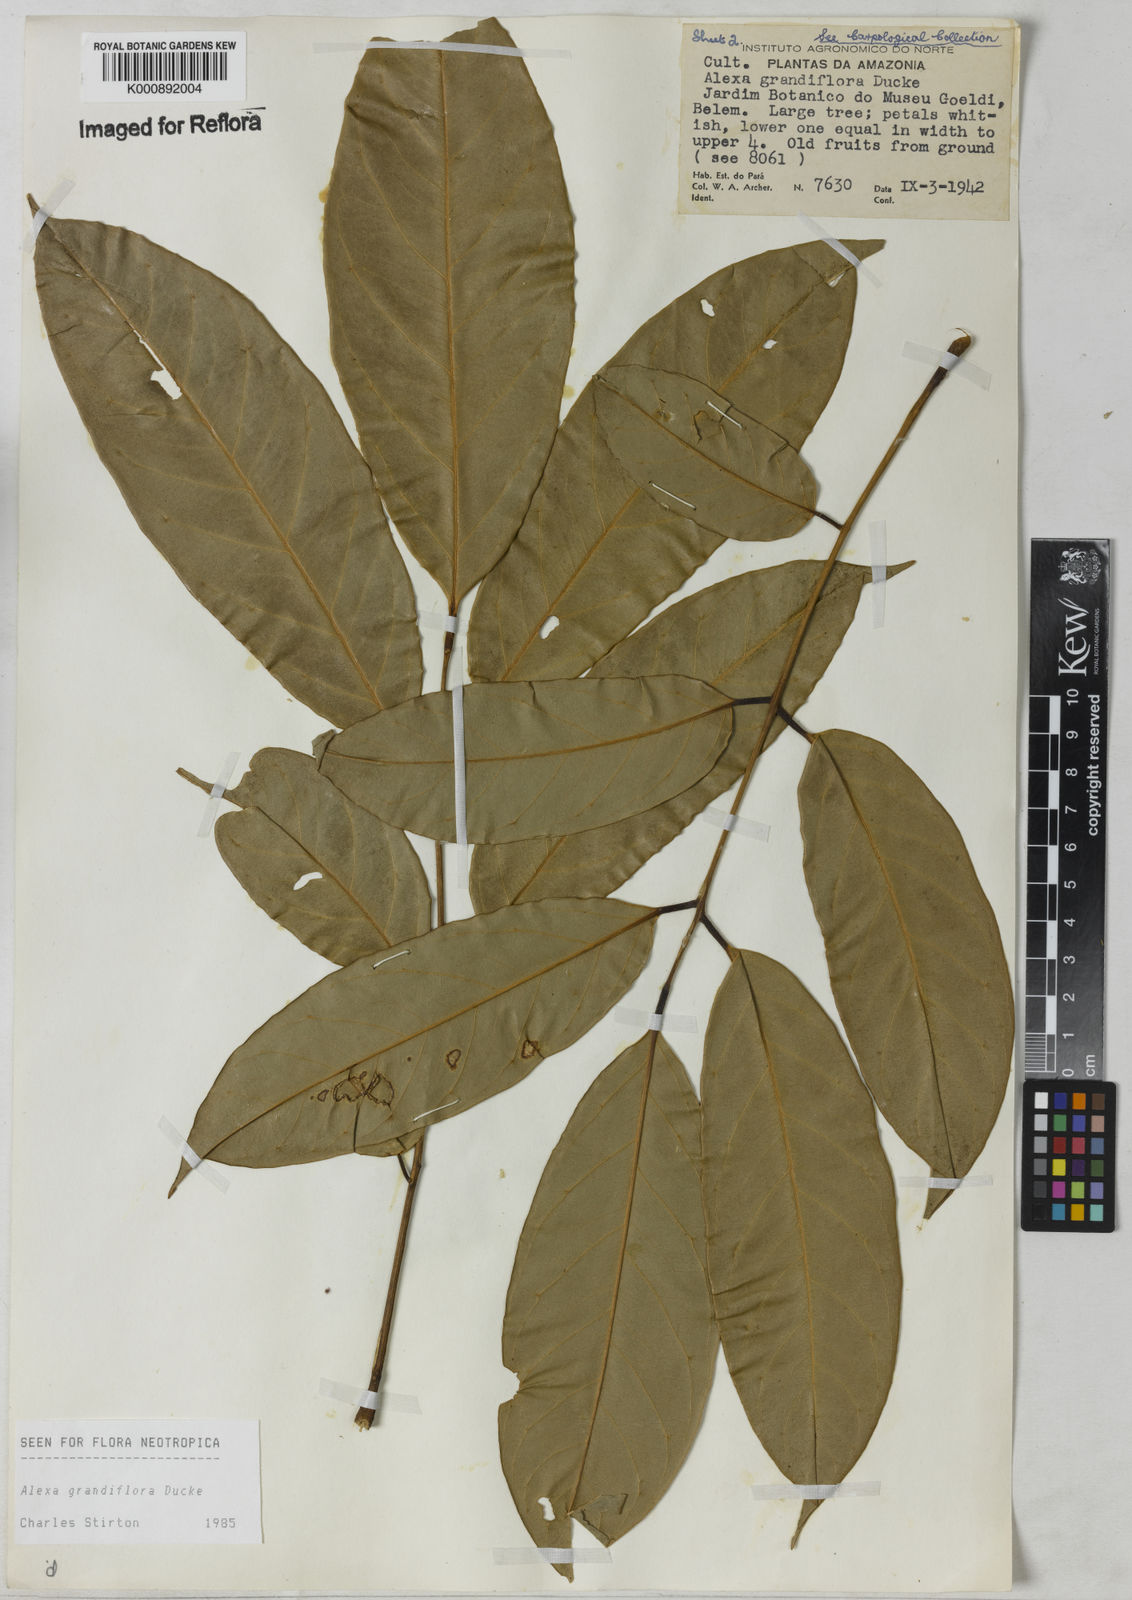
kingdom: Plantae
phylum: Tracheophyta
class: Magnoliopsida
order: Fabales
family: Fabaceae
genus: Alexa
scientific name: Alexa grandiflora
